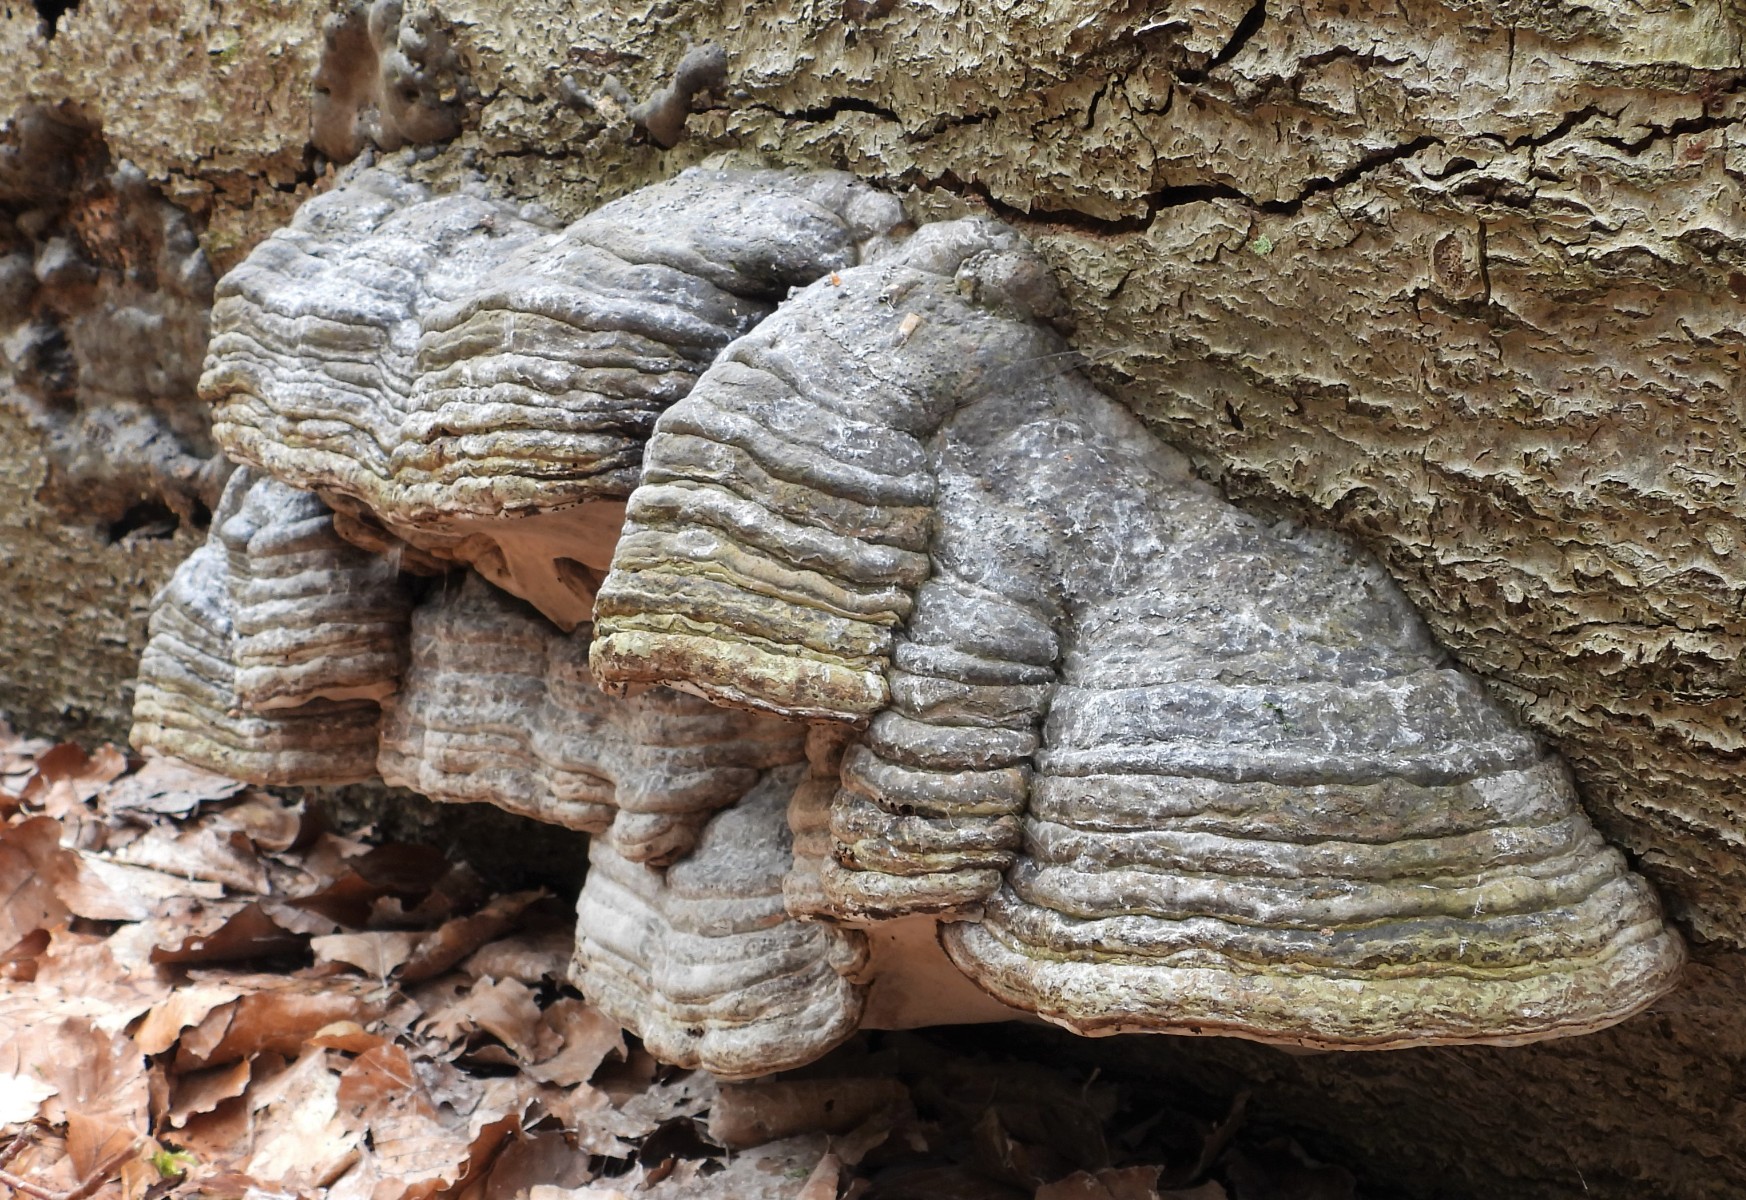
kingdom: Fungi
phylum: Basidiomycota
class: Agaricomycetes
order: Polyporales
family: Polyporaceae
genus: Fomes
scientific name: Fomes fomentarius
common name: tøndersvamp
